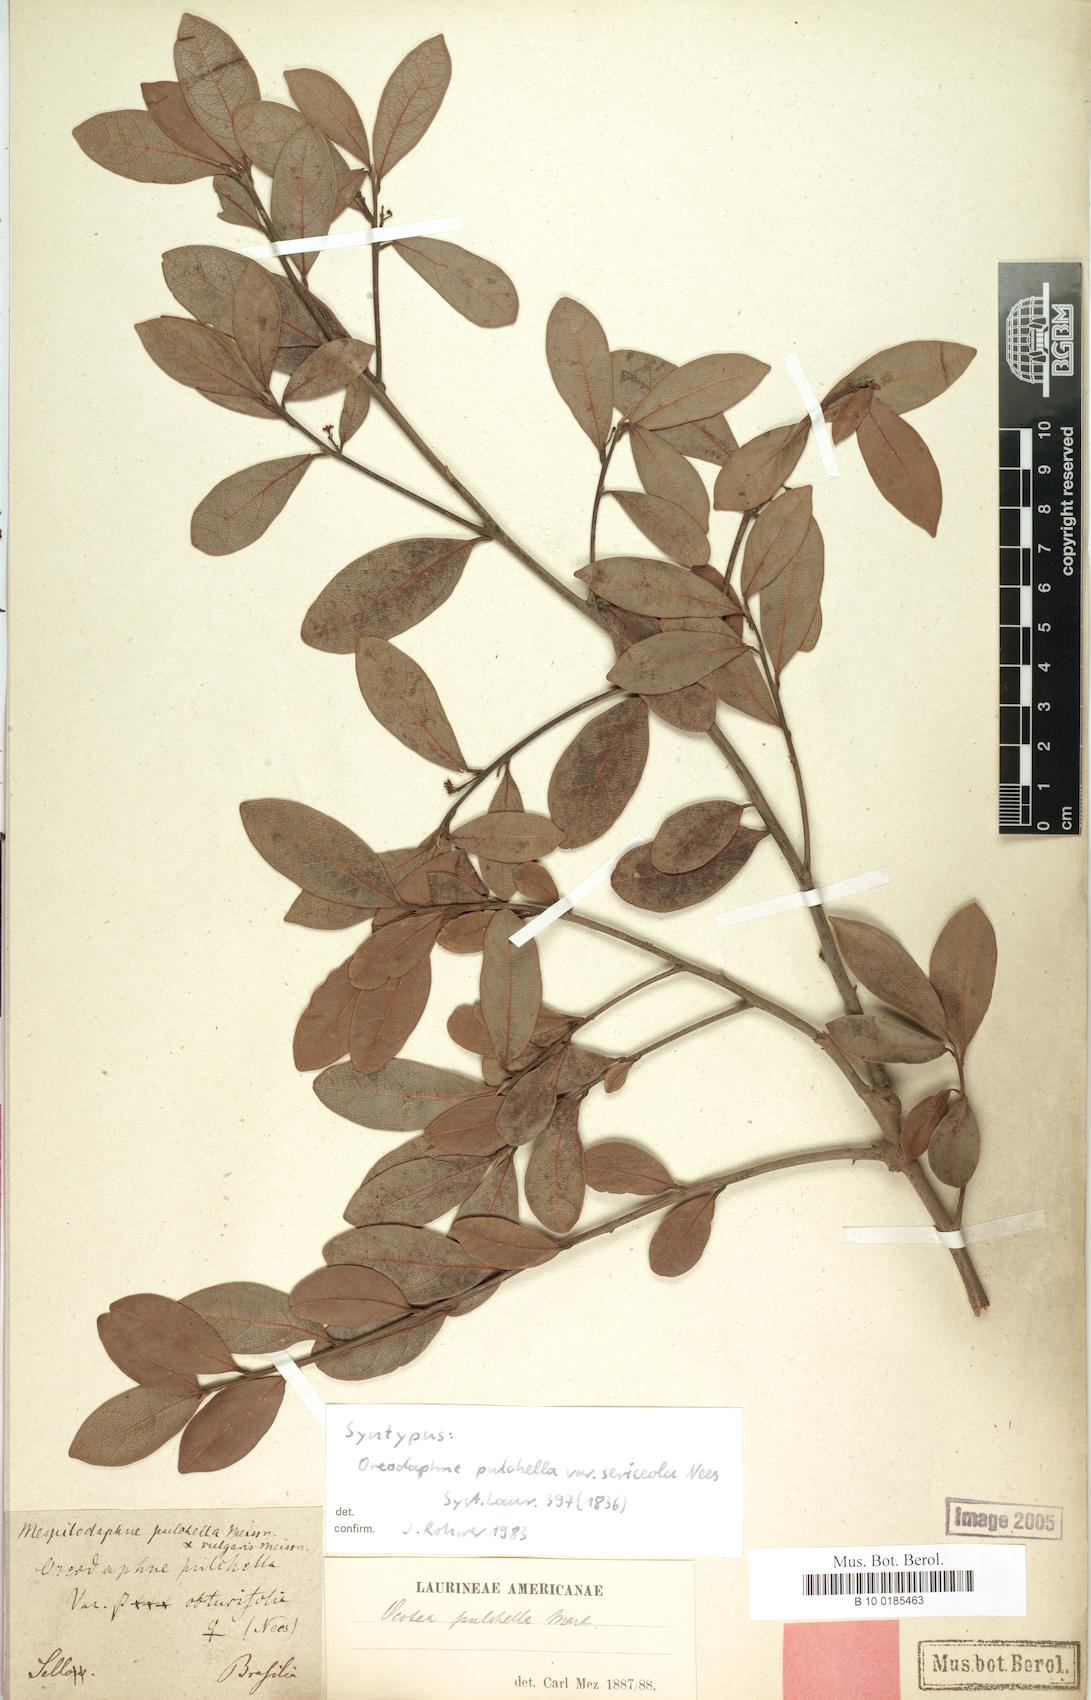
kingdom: Plantae
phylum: Tracheophyta
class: Magnoliopsida
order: Laurales
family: Lauraceae
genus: Mespilodaphne
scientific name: Mespilodaphne pulchella
